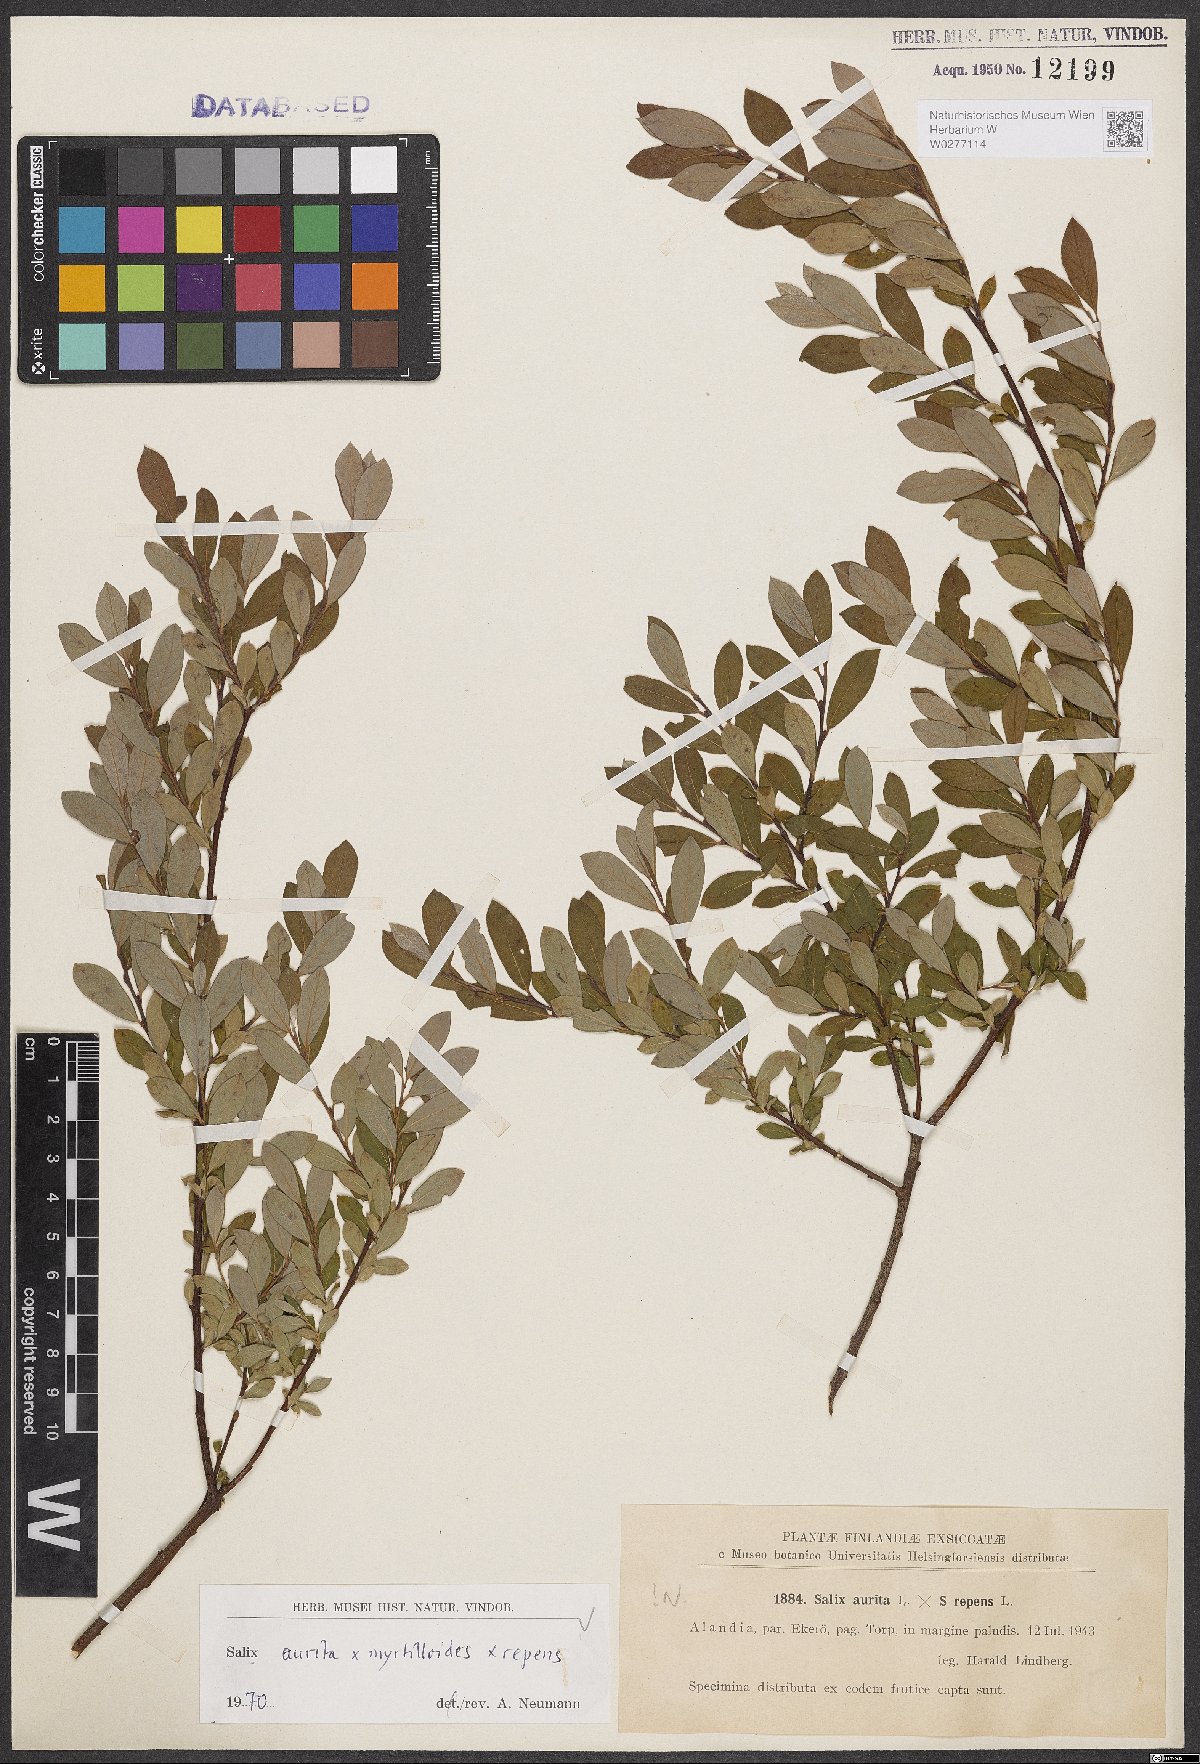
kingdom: Plantae
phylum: Tracheophyta
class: Magnoliopsida
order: Malpighiales
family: Salicaceae
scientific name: Salicaceae
